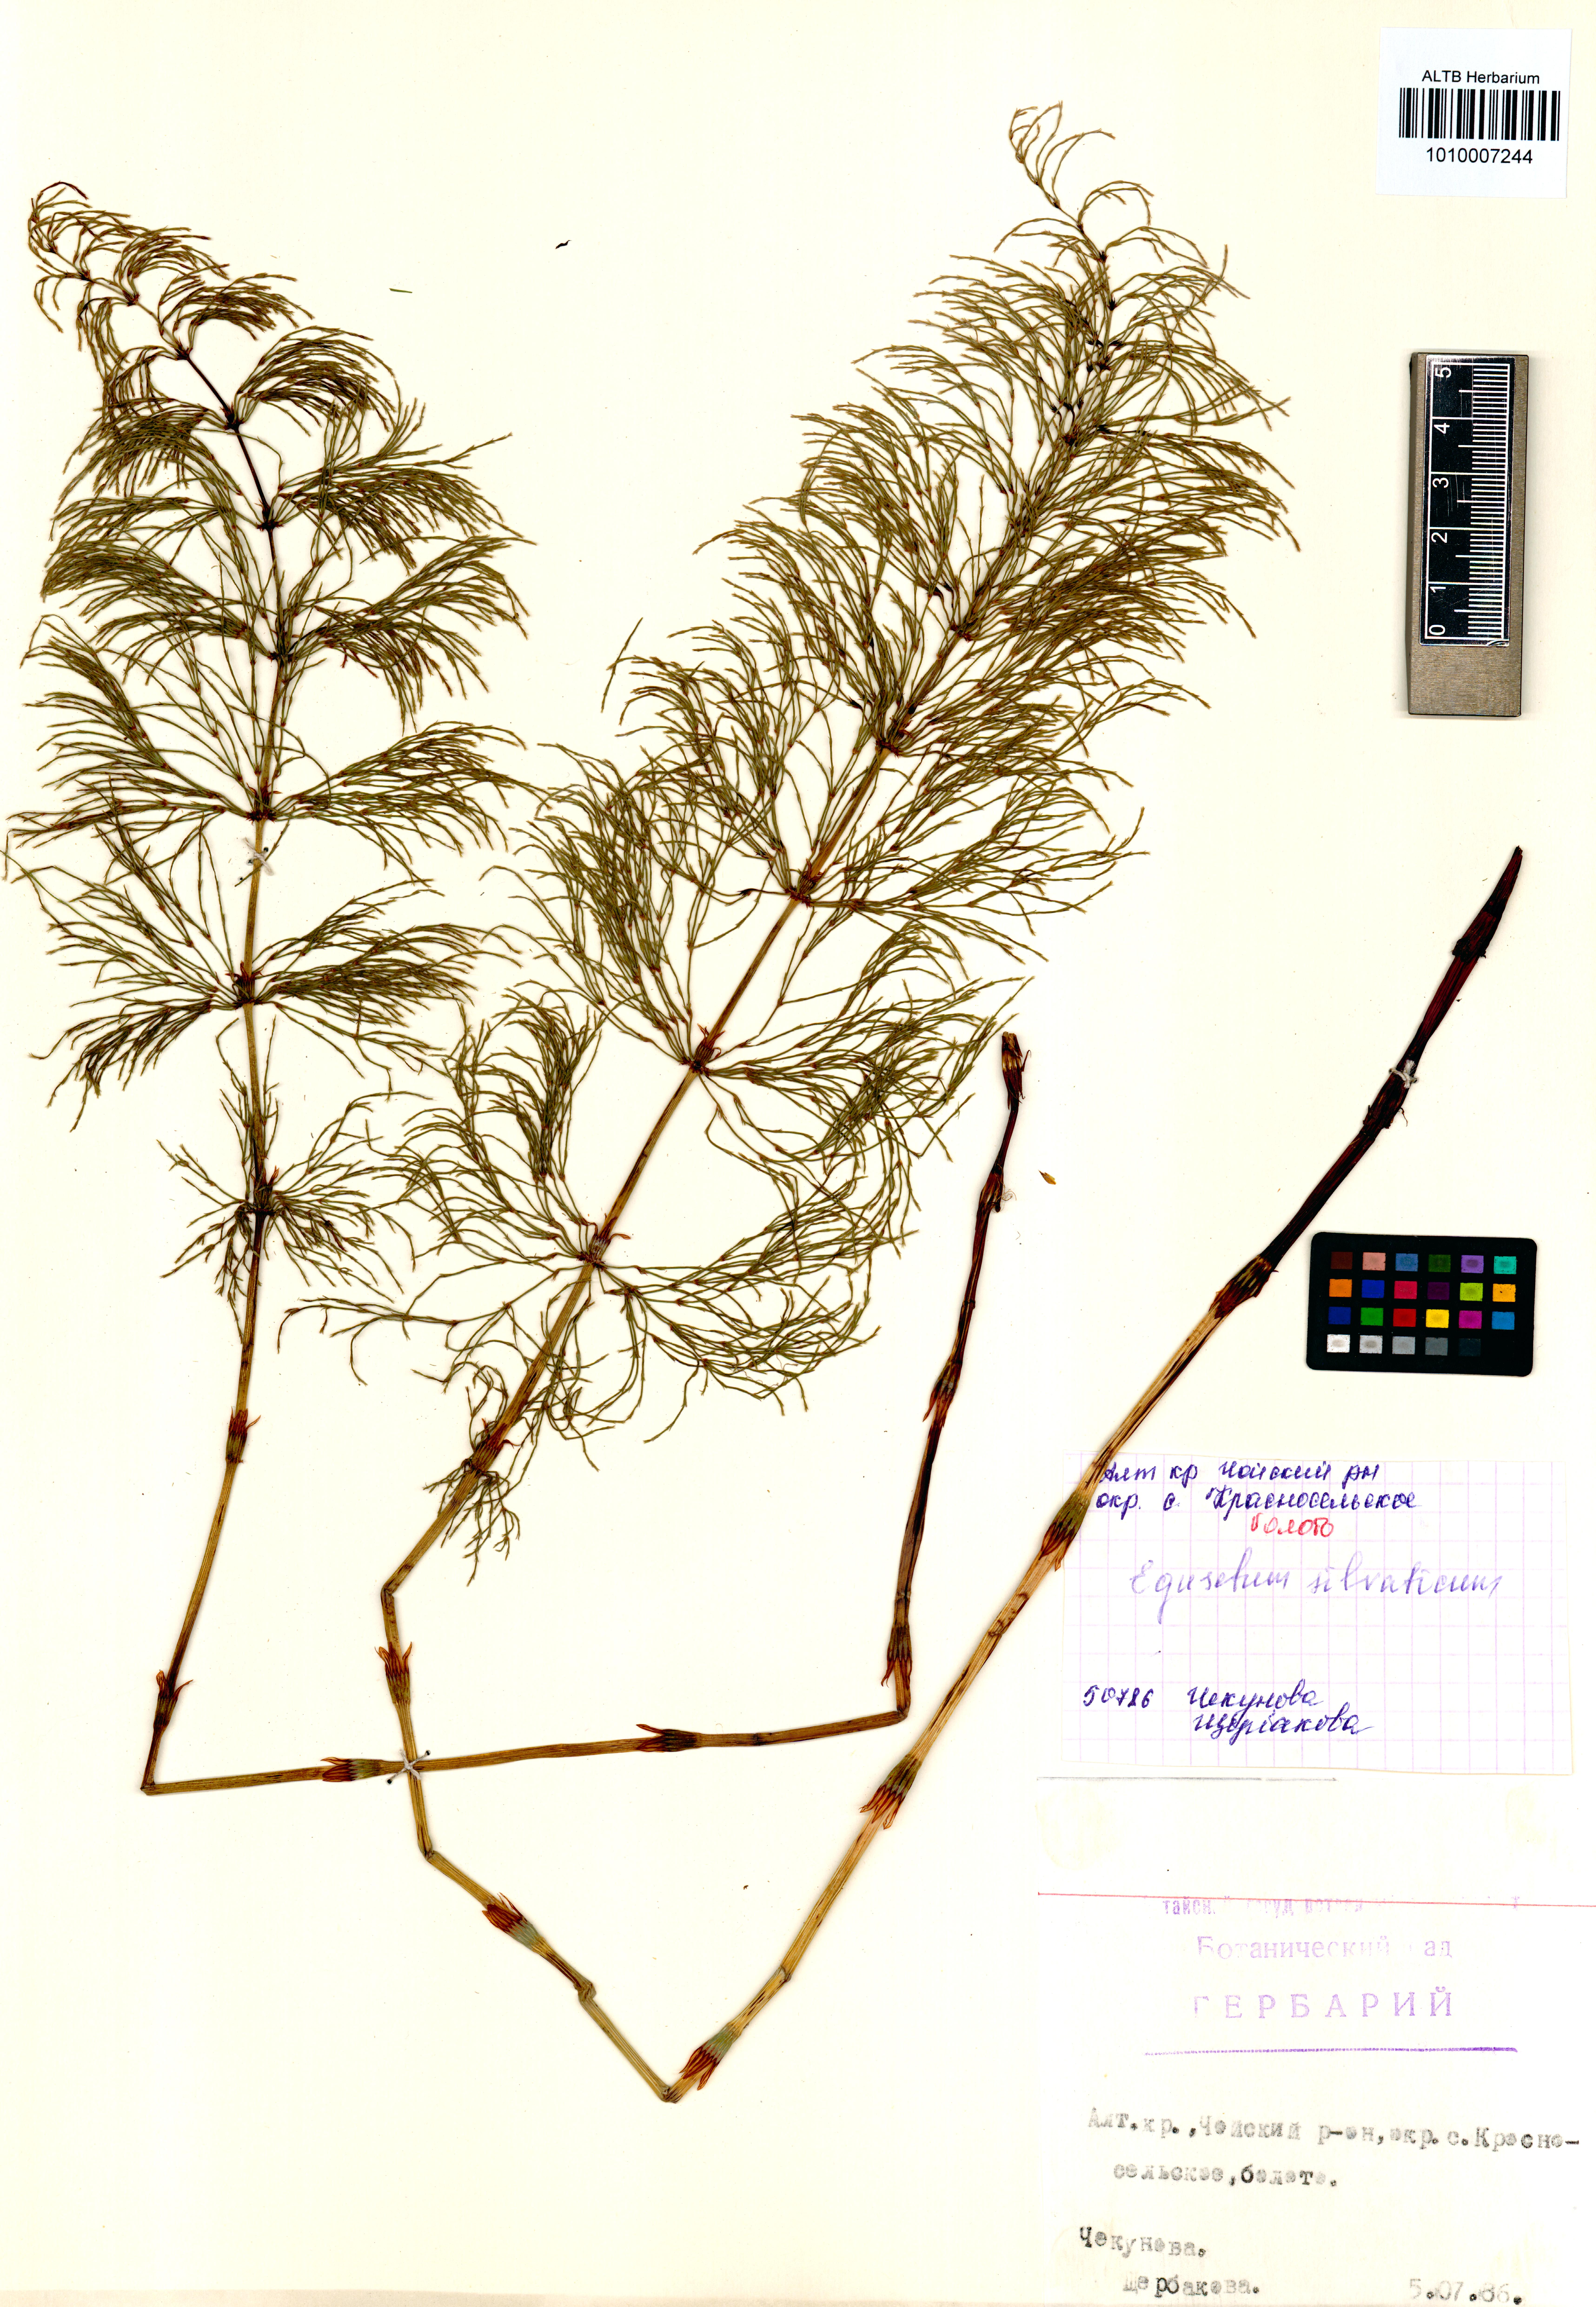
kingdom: Plantae
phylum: Tracheophyta
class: Polypodiopsida
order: Equisetales
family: Equisetaceae
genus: Equisetum
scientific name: Equisetum sylvaticum
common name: Wood horsetail
